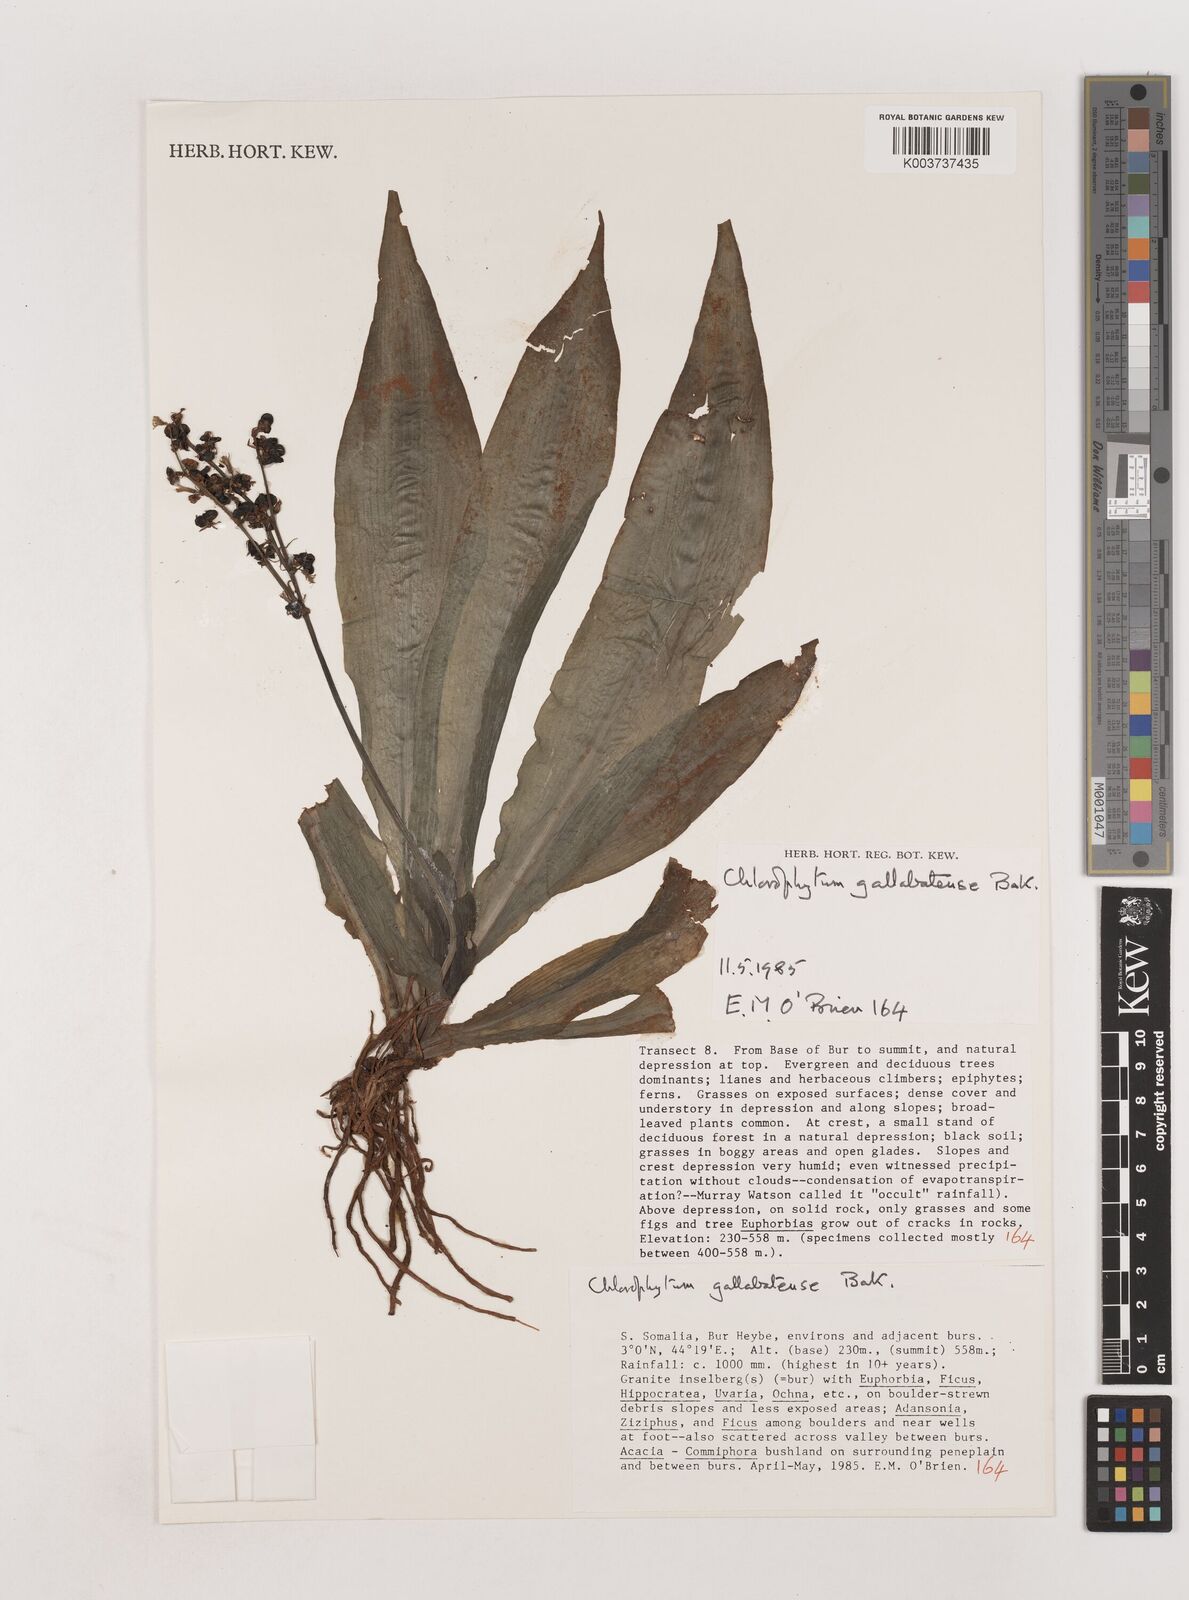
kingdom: Plantae
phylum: Tracheophyta
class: Liliopsida
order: Asparagales
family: Asparagaceae
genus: Chlorophytum
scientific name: Chlorophytum gallabatense
